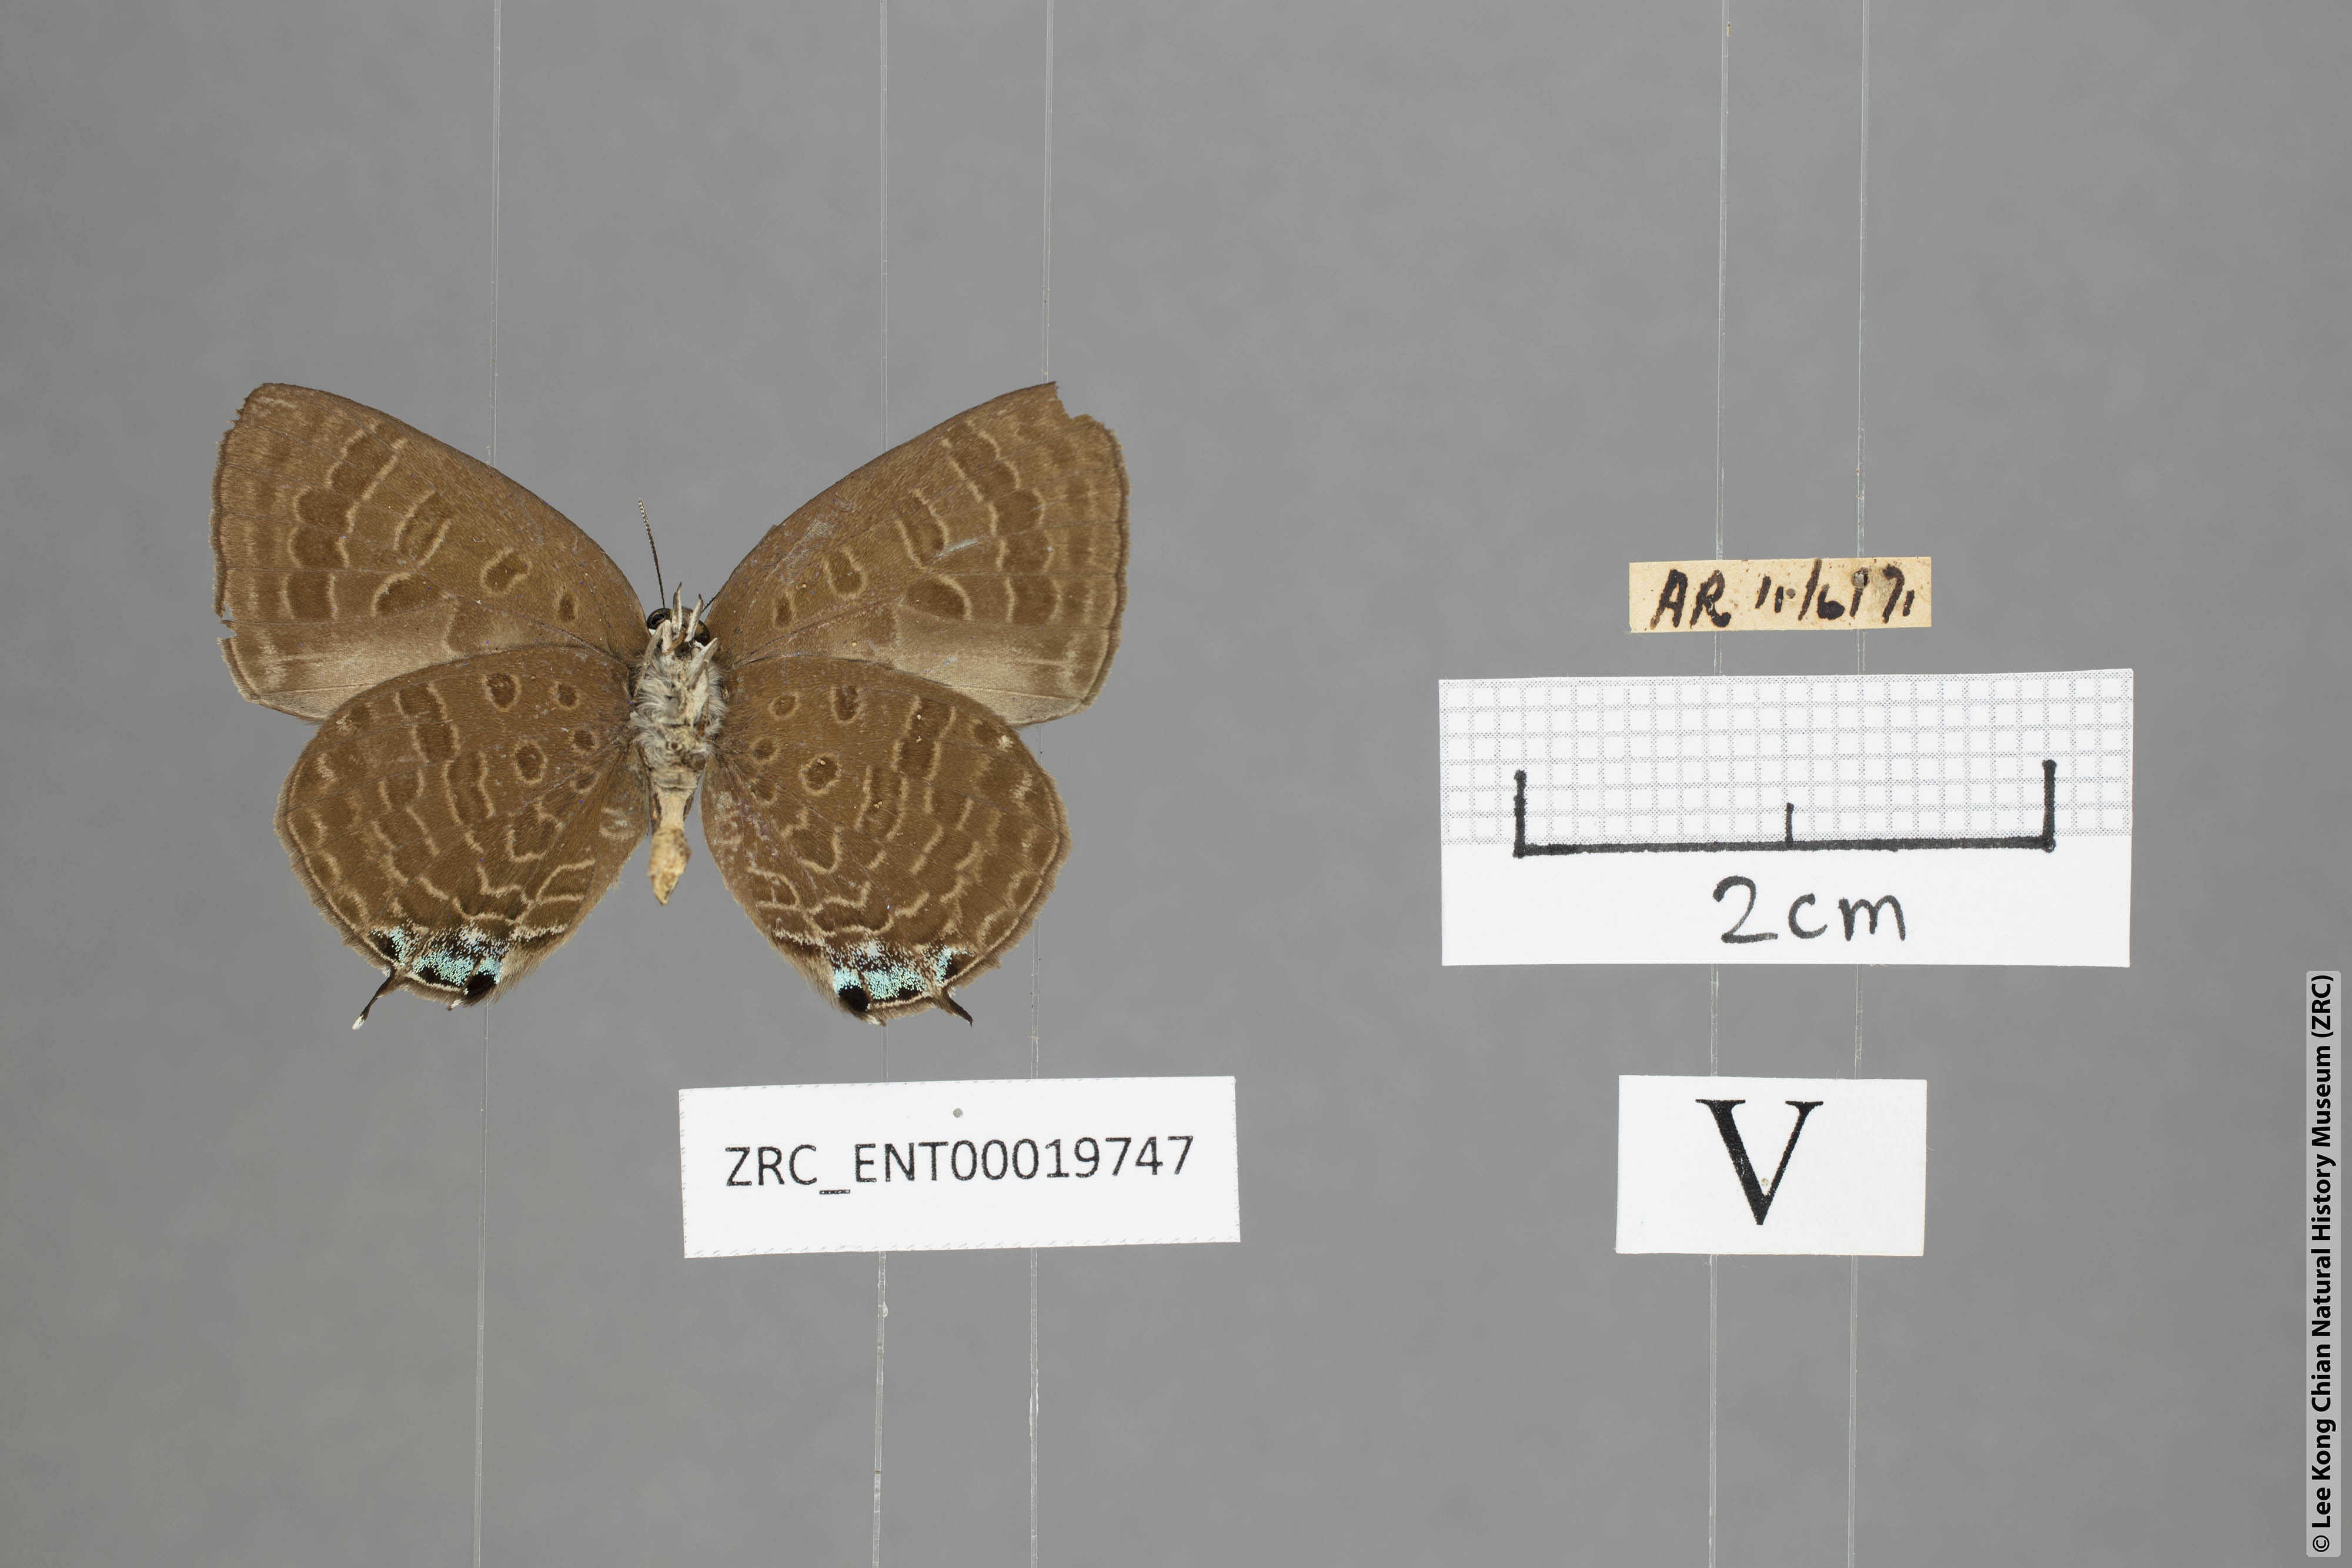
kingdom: Animalia
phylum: Arthropoda
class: Insecta
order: Lepidoptera
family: Lycaenidae
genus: Arhopala
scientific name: Arhopala normani
